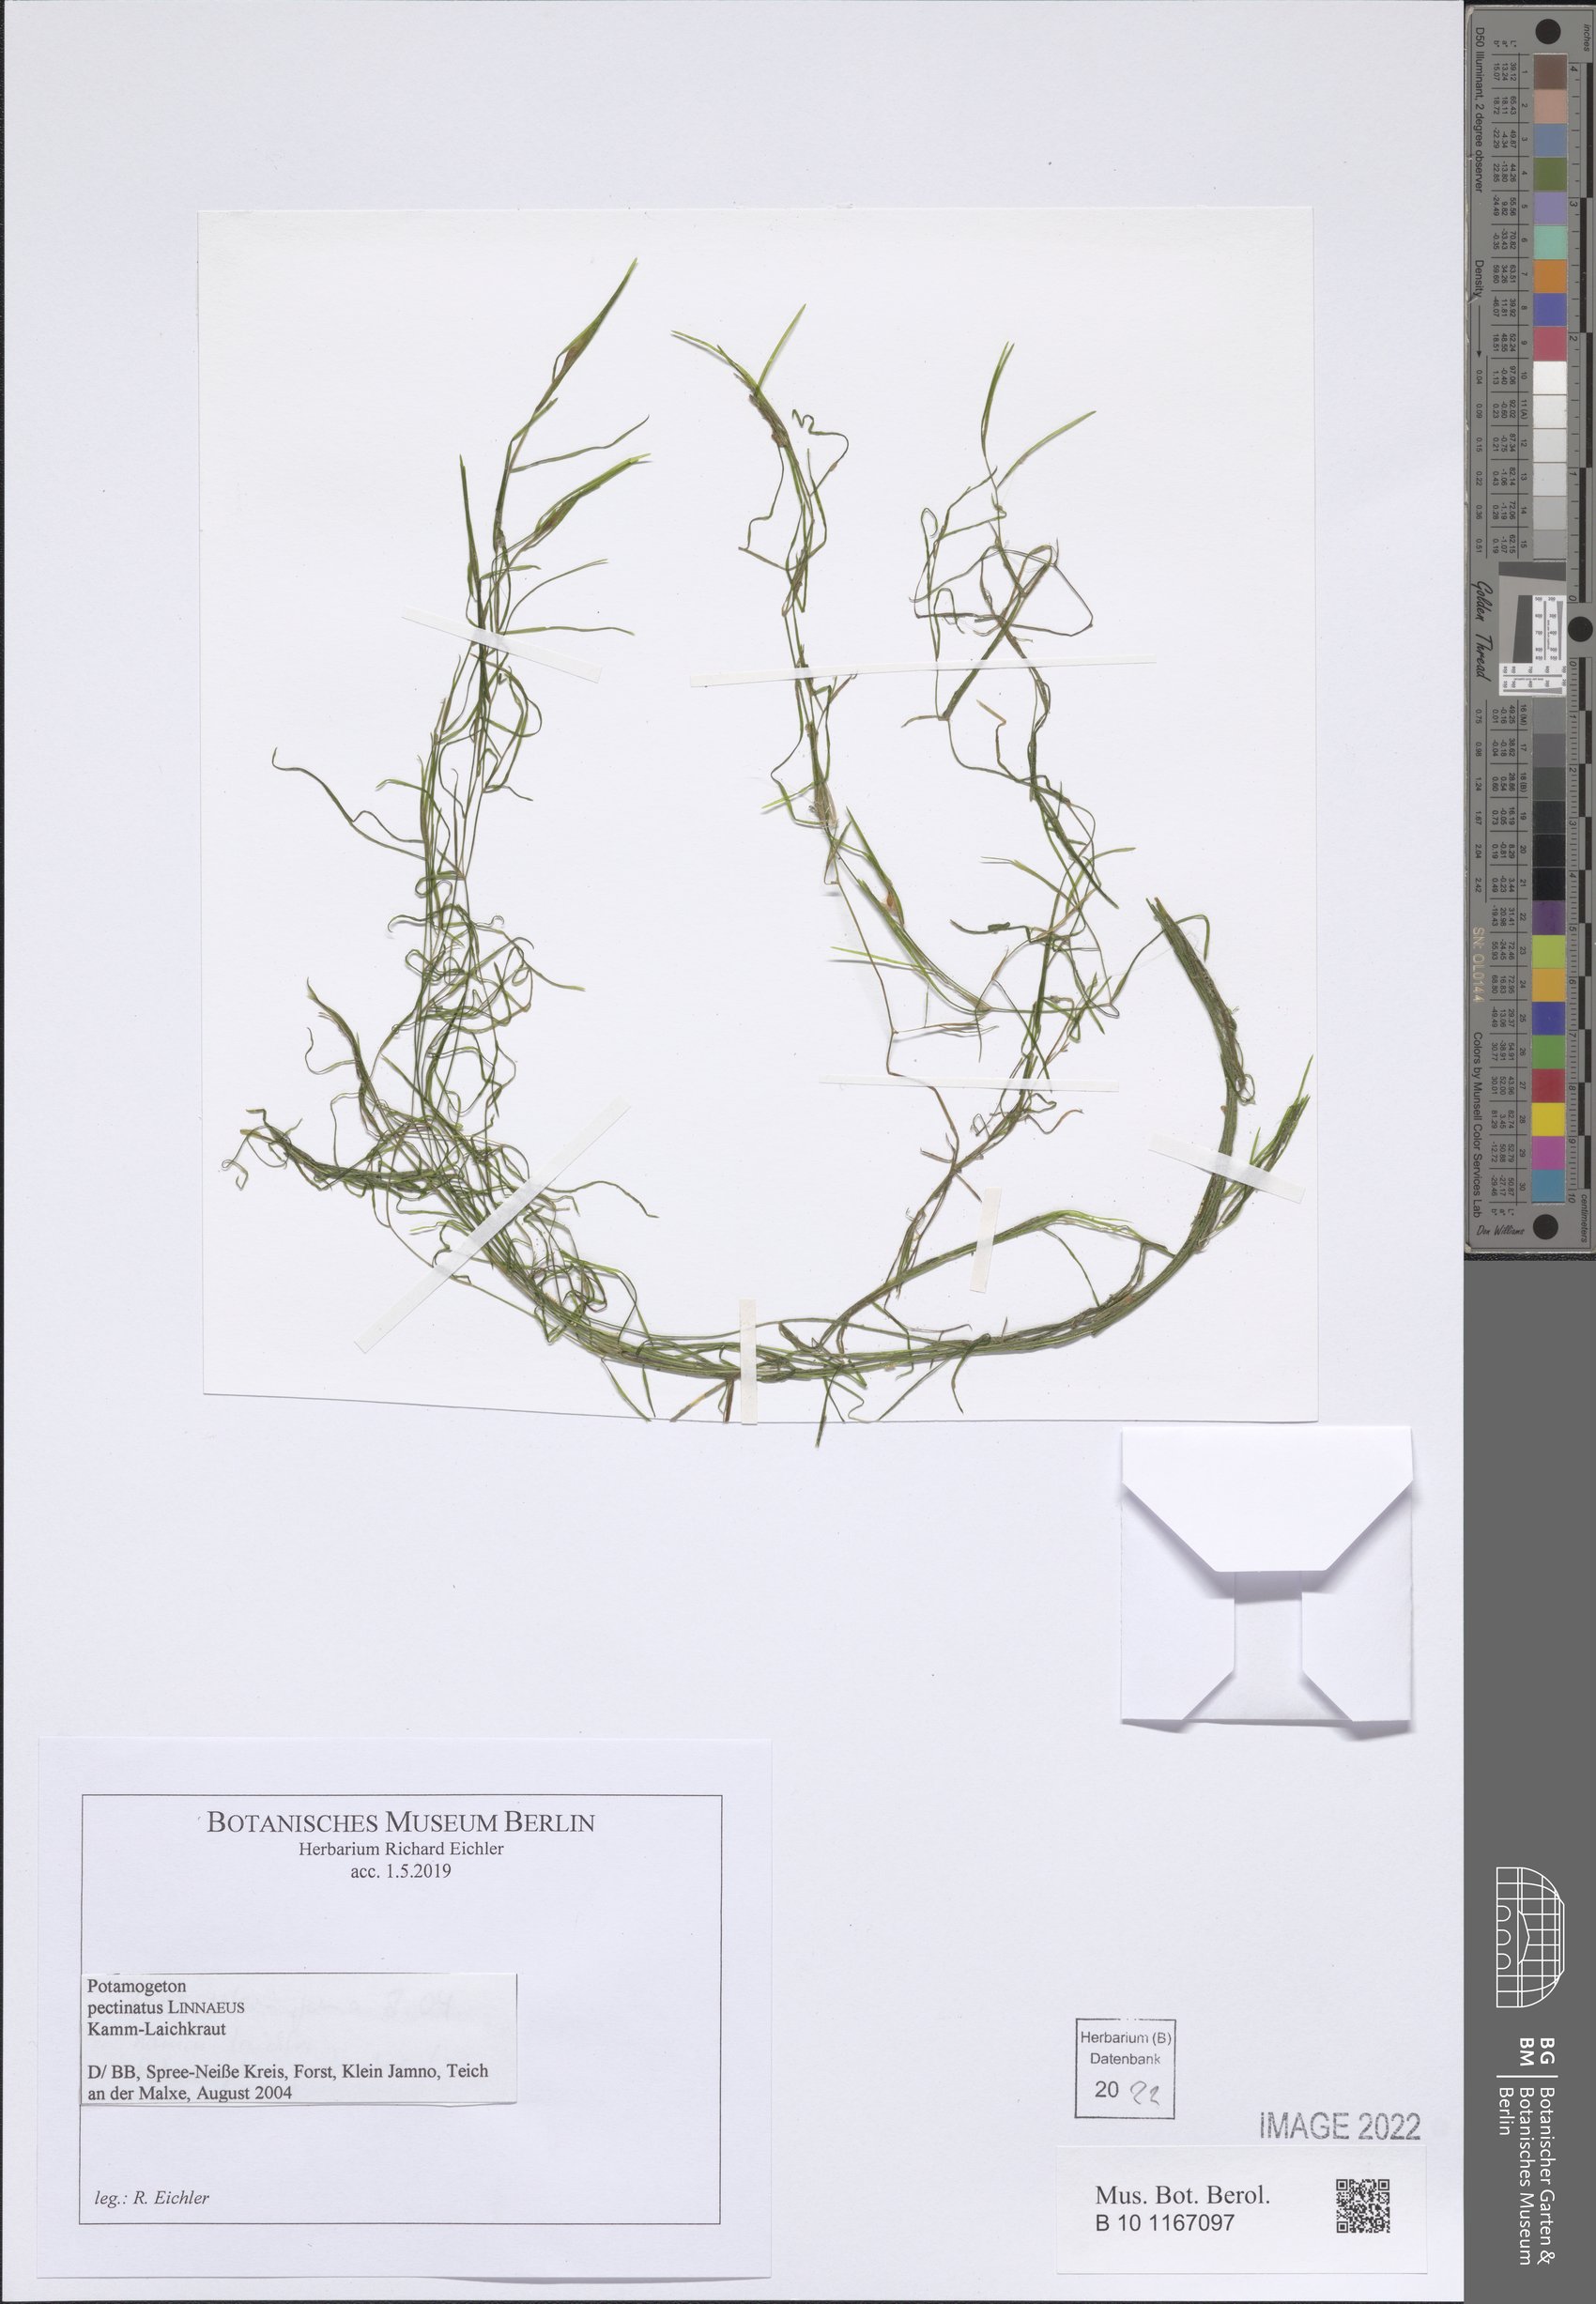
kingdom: Plantae
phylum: Tracheophyta
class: Liliopsida
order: Alismatales
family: Potamogetonaceae
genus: Stuckenia
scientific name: Stuckenia pectinata
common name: Sago pondweed
